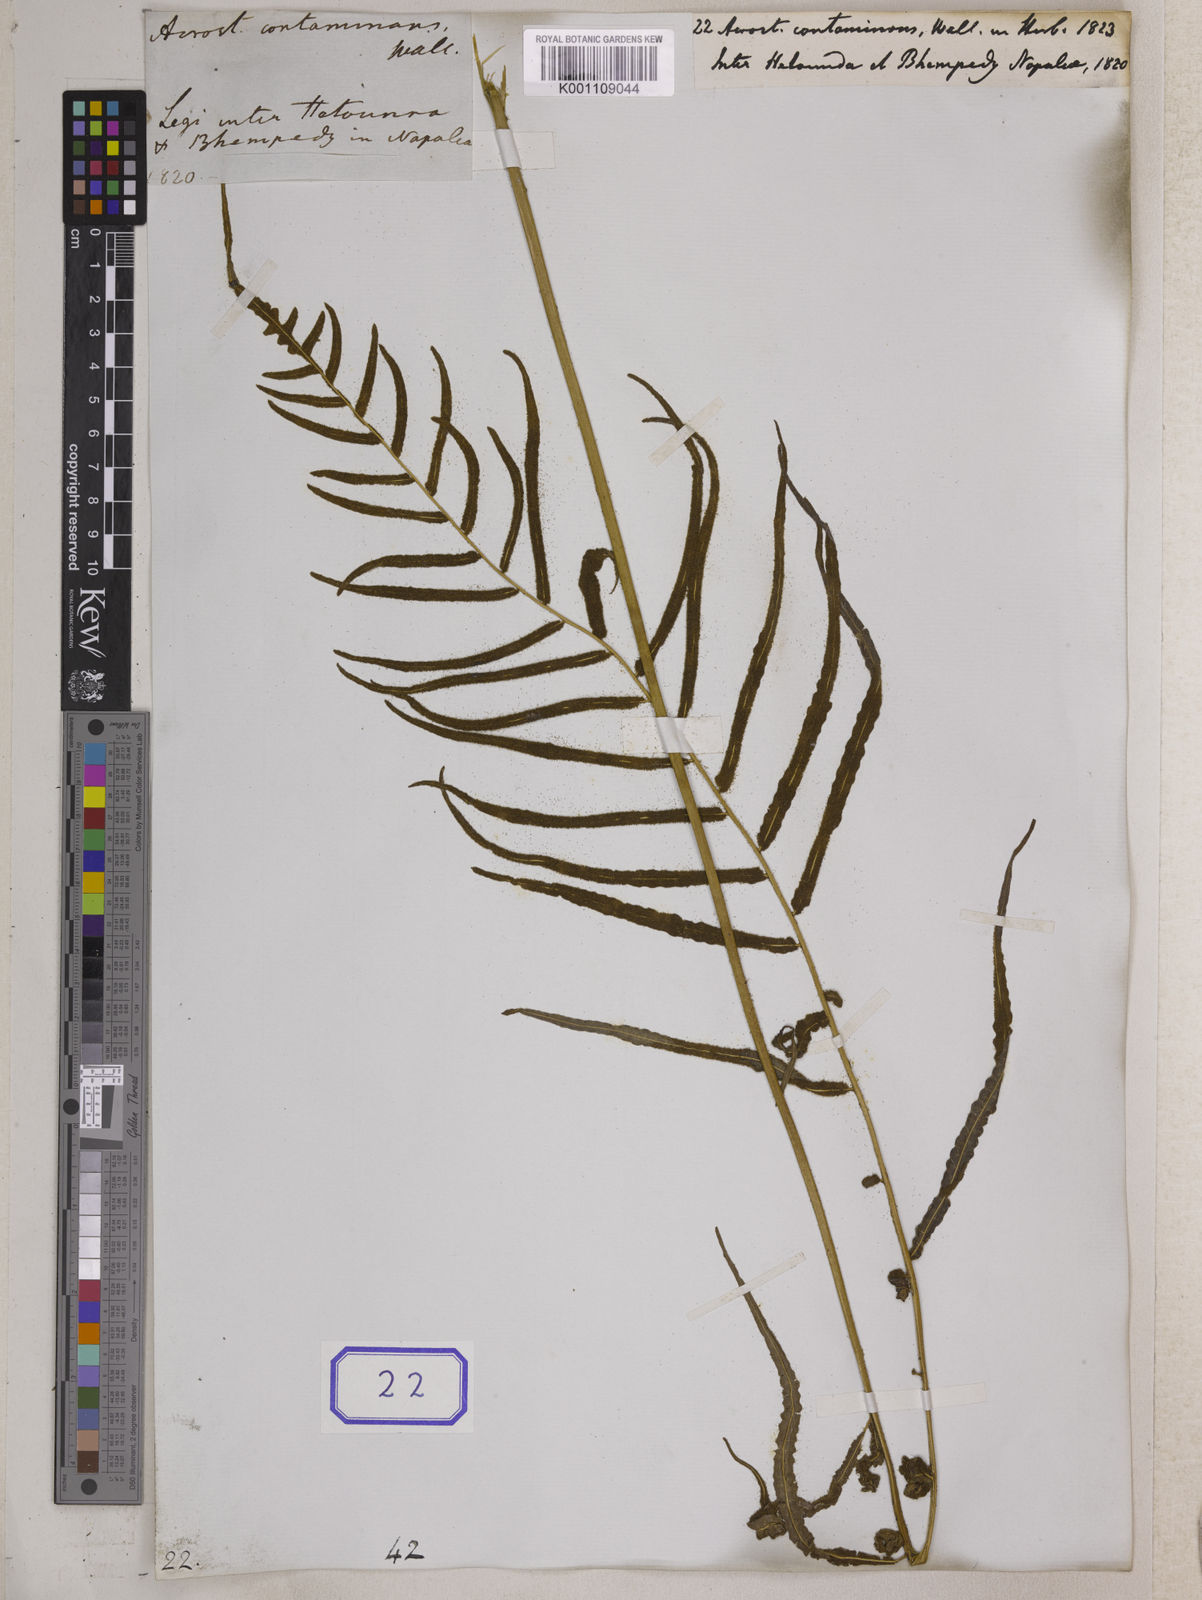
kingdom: Plantae
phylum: Tracheophyta
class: Polypodiopsida
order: Polypodiales
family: Dryopteridaceae
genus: Bolbitis
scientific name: Bolbitis angustipinna
